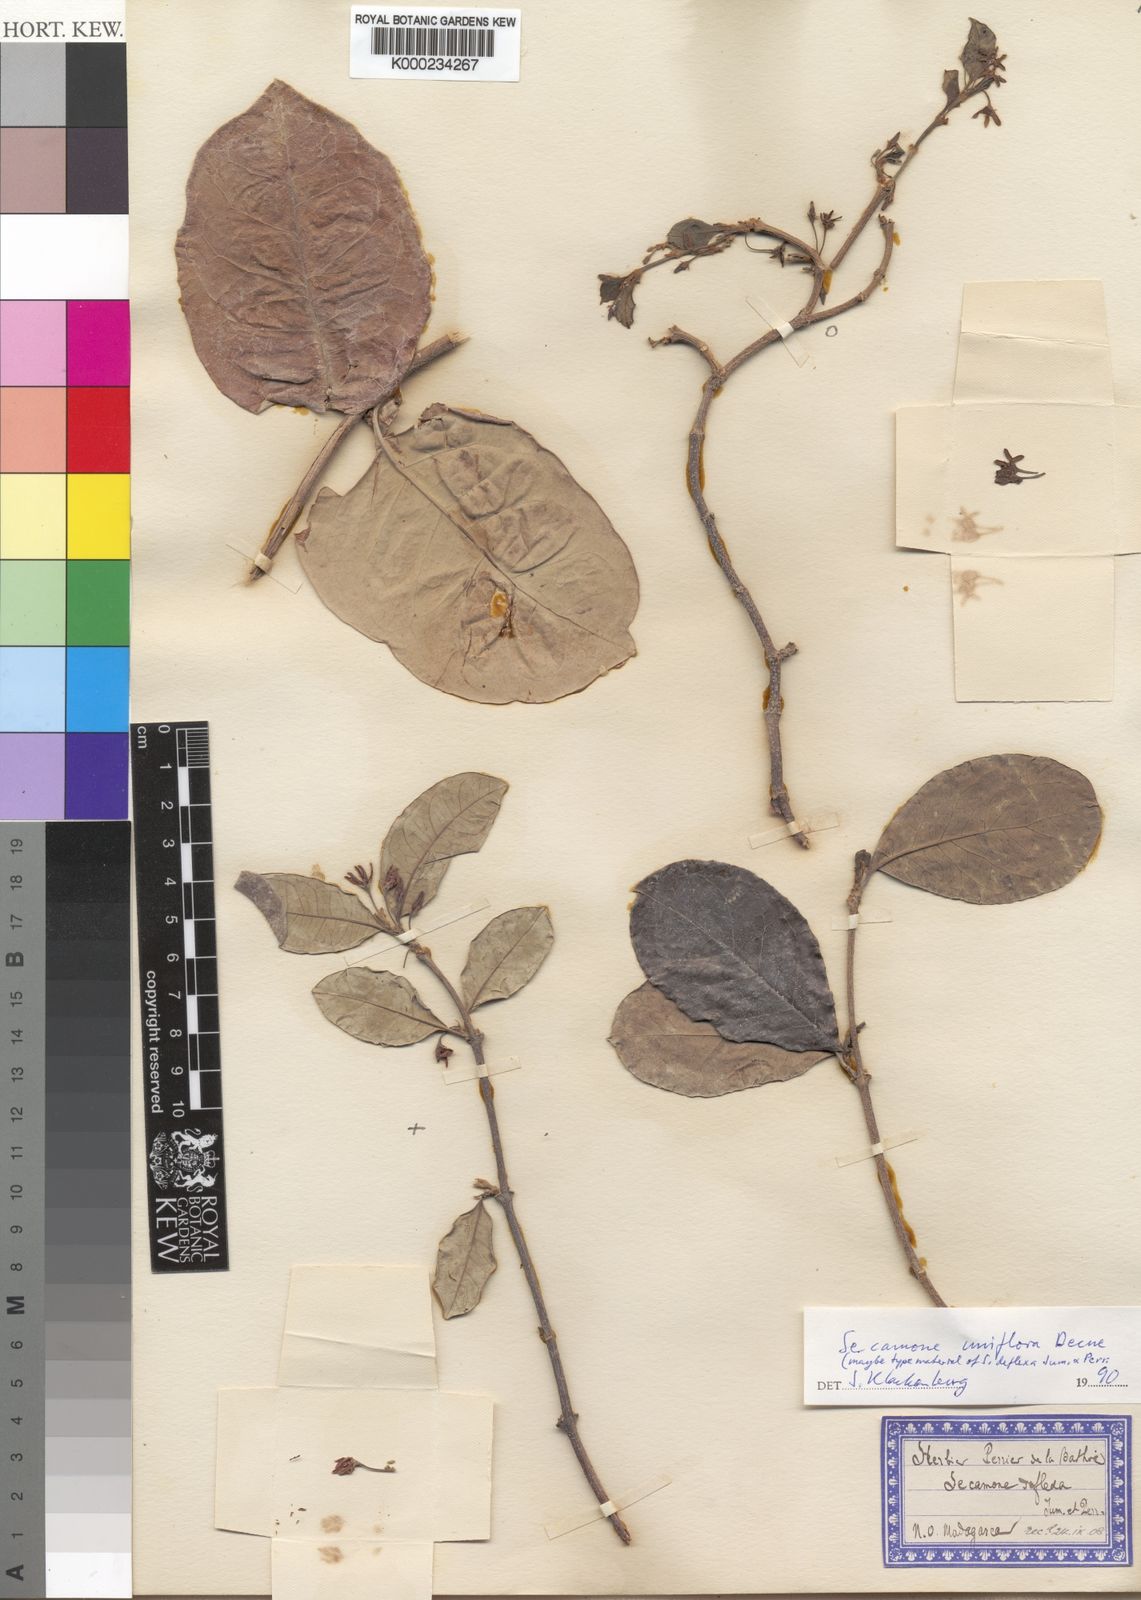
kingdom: Plantae
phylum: Tracheophyta
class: Magnoliopsida
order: Gentianales
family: Apocynaceae
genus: Secamone
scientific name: Secamone uniflora
